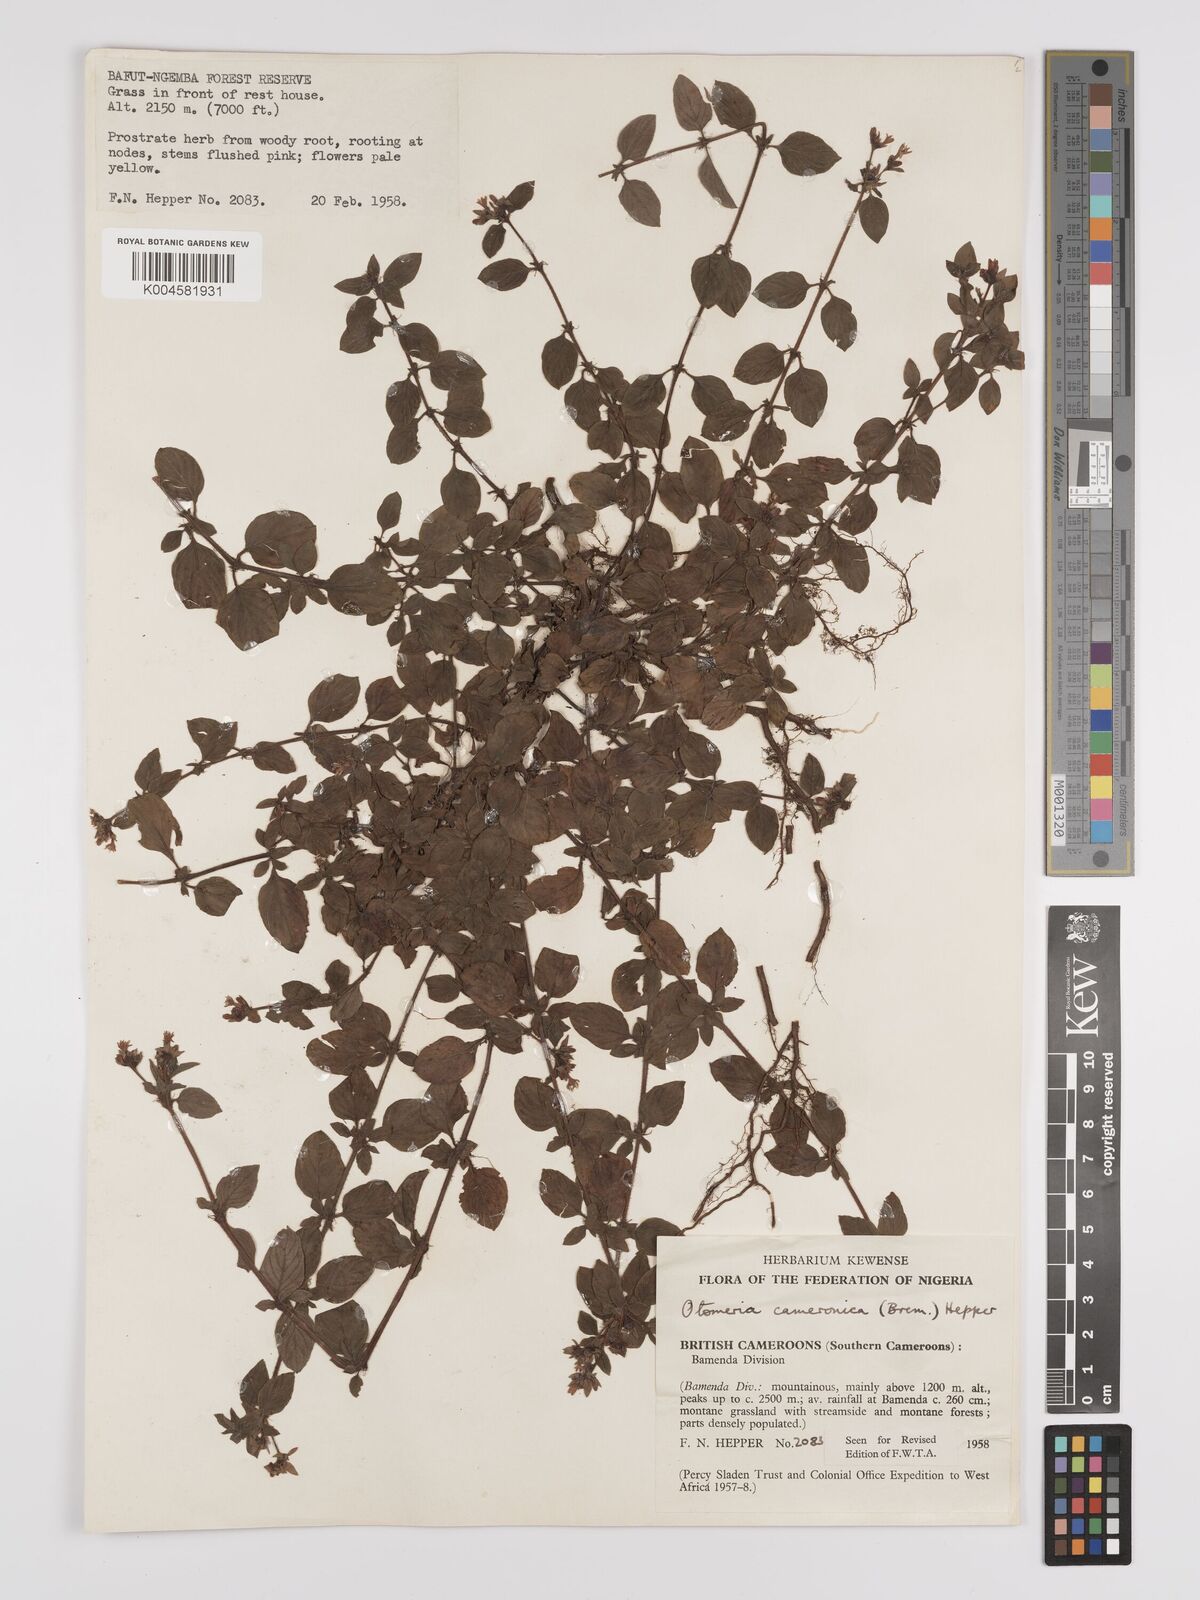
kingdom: Plantae
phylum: Tracheophyta
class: Magnoliopsida
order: Gentianales
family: Rubiaceae
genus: Otomeria
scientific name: Otomeria cameronica
